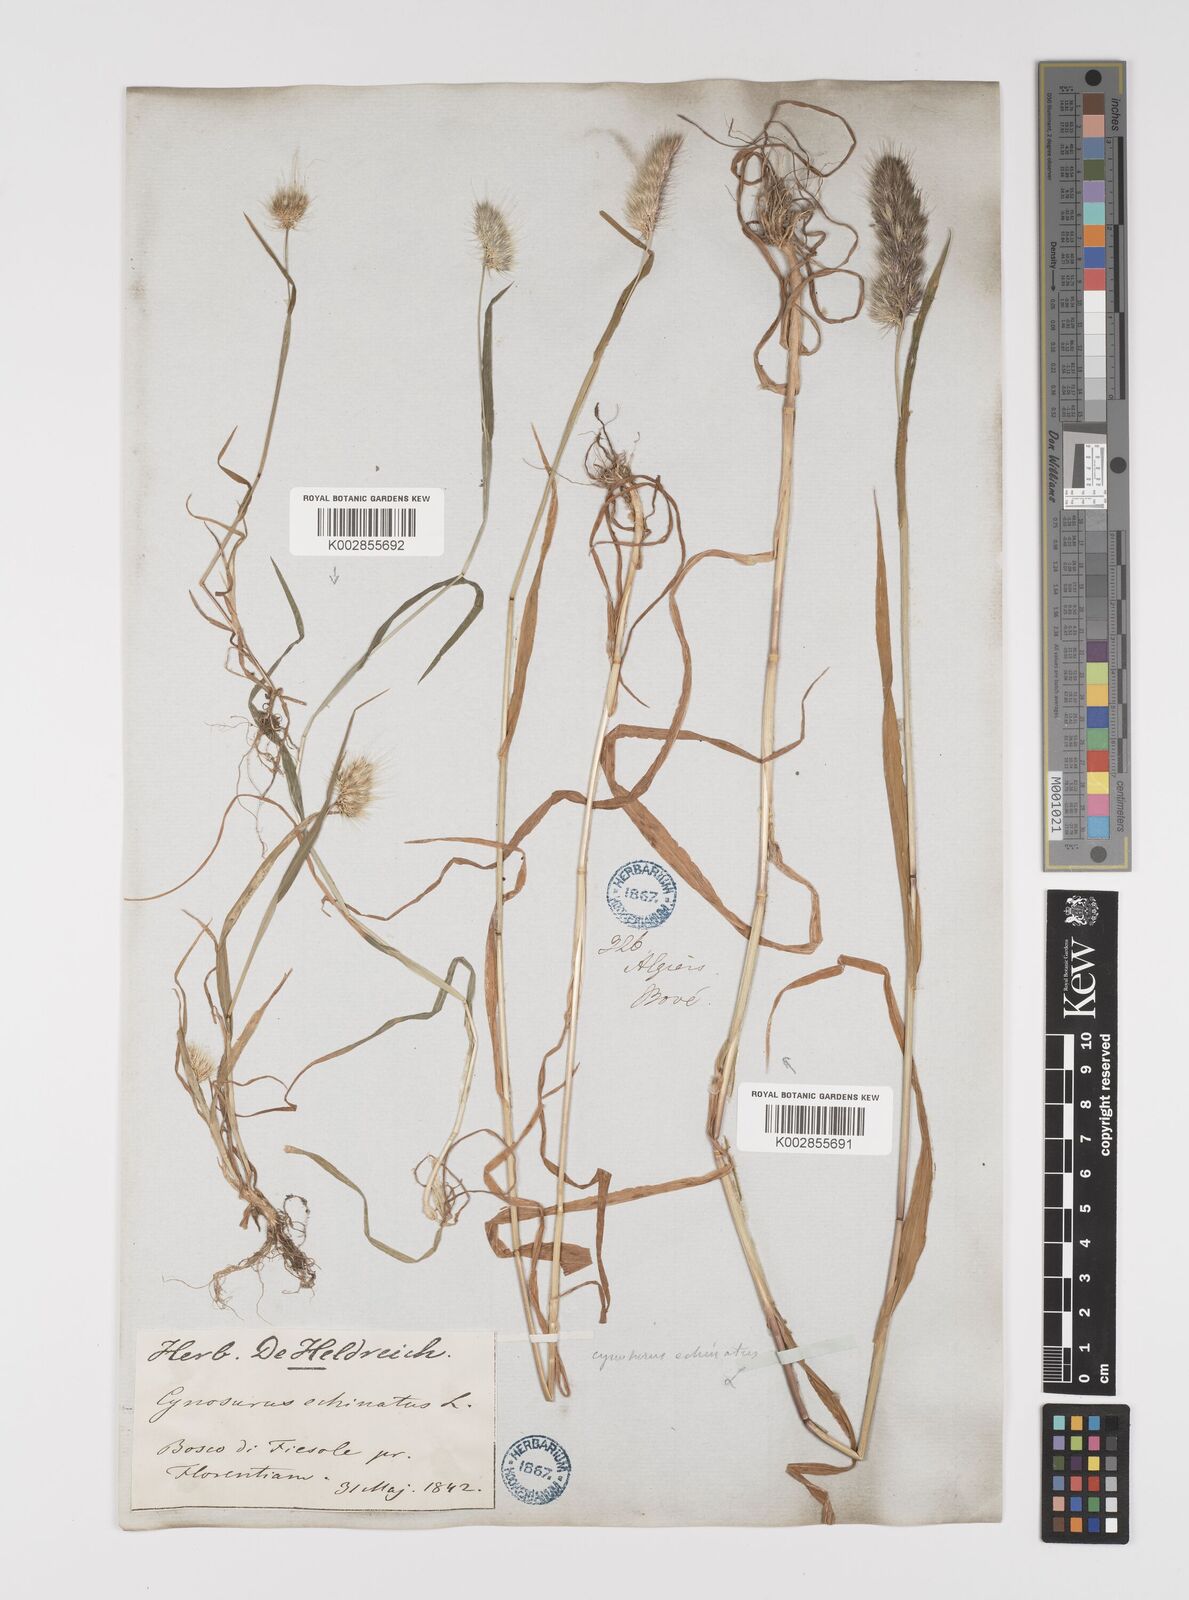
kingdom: Plantae
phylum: Tracheophyta
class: Liliopsida
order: Poales
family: Poaceae
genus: Cynosurus
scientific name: Cynosurus echinatus
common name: Rough dog's-tail
